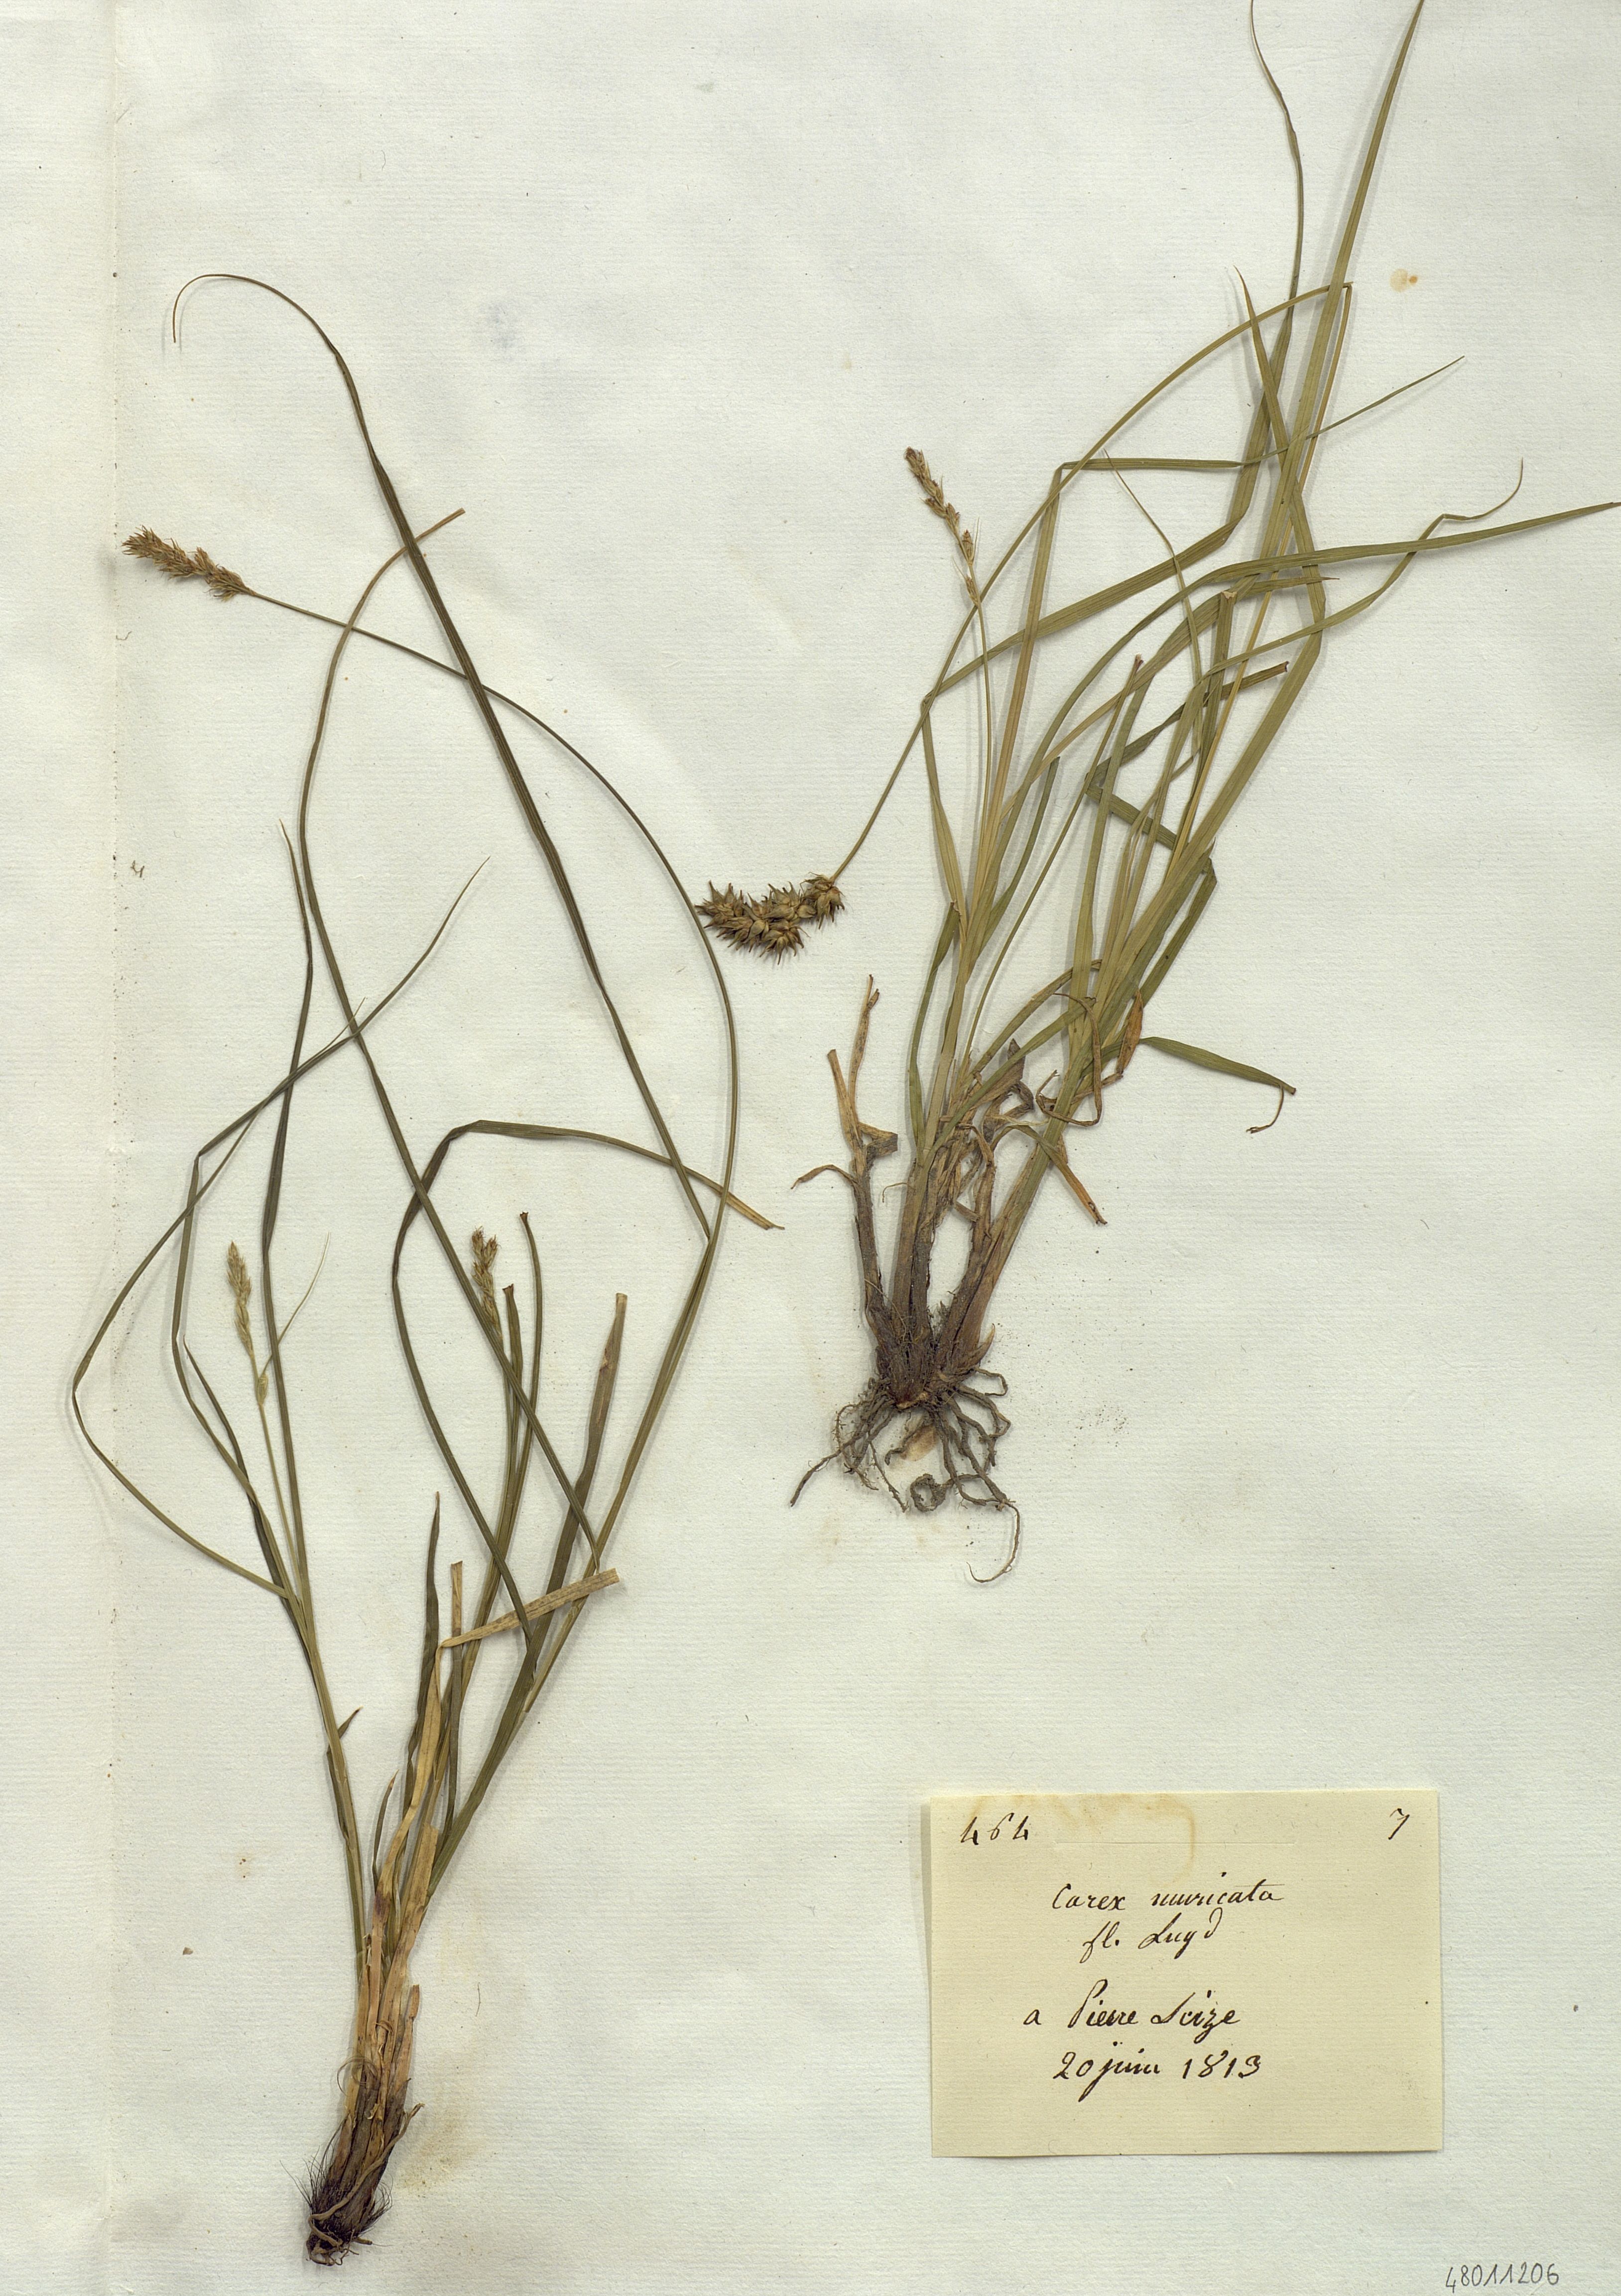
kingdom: Plantae
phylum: Tracheophyta
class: Liliopsida
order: Poales
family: Cyperaceae
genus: Carex
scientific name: Carex muricata
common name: Rough sedge
